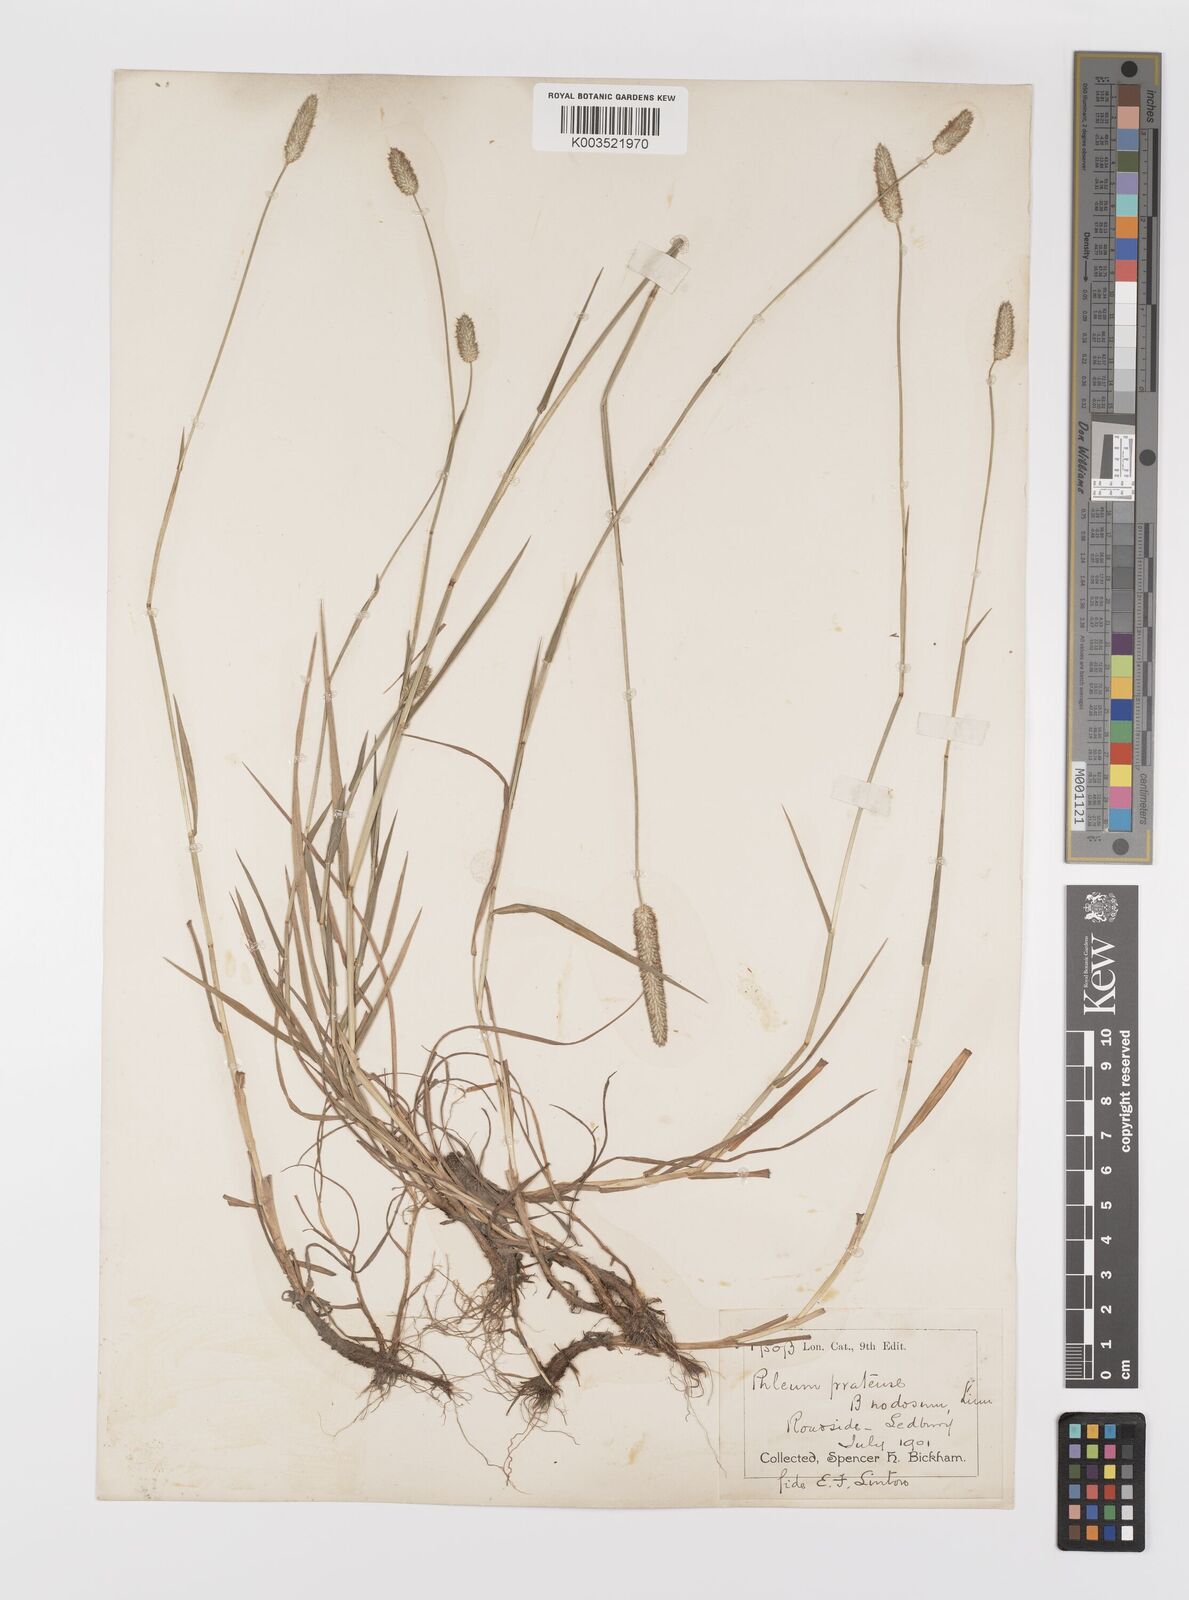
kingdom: Plantae
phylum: Tracheophyta
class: Liliopsida
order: Poales
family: Poaceae
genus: Phleum
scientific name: Phleum bertolonii
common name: Smaller cat's-tail
